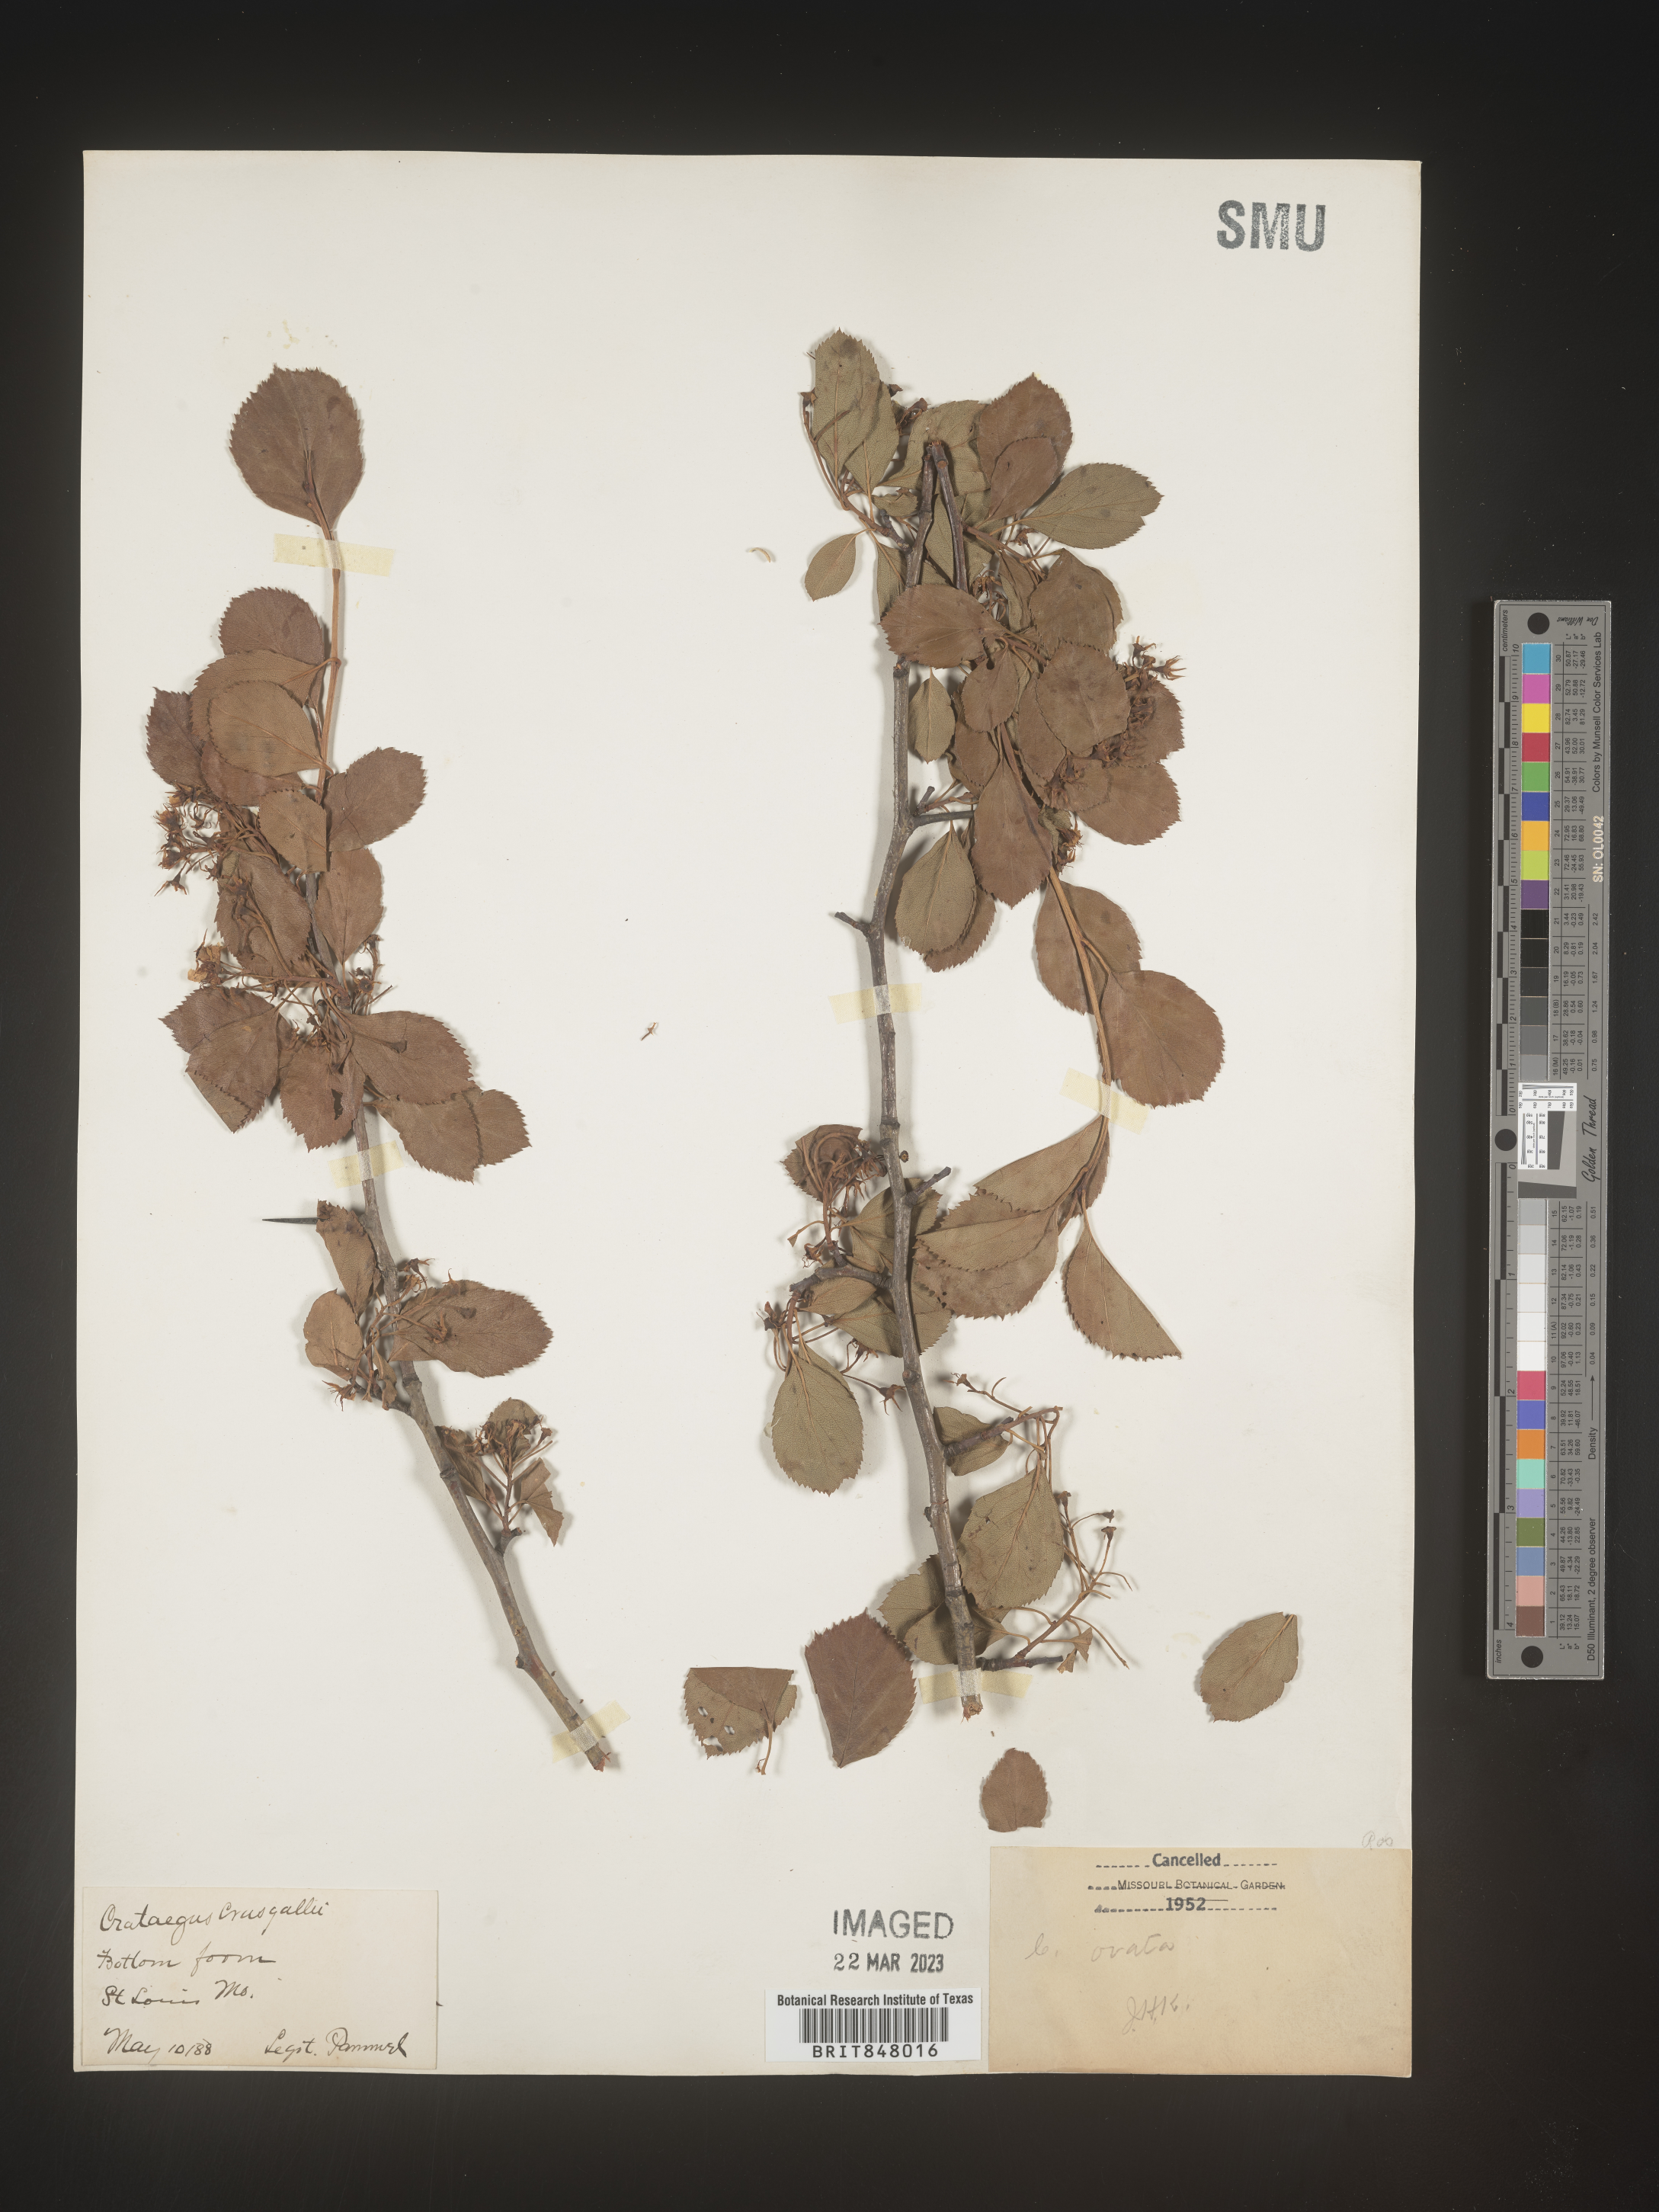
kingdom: Plantae
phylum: Tracheophyta
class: Magnoliopsida
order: Rosales
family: Rosaceae
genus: Crataegus
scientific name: Crataegus crus-galli
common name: Cockspurthorn
